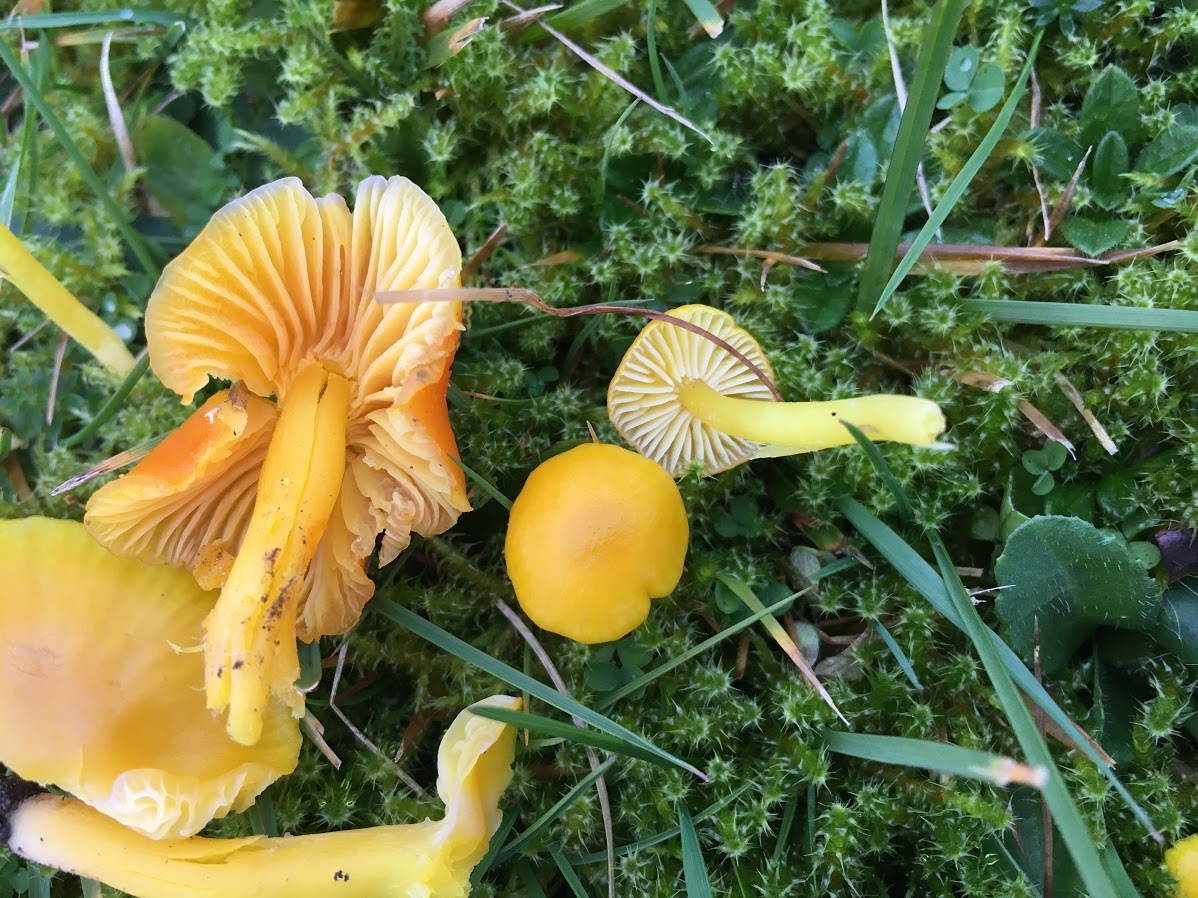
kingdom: Fungi
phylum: Basidiomycota
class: Agaricomycetes
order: Agaricales
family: Hygrophoraceae
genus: Hygrocybe
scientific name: Hygrocybe ceracea
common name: voksgul vokshat
